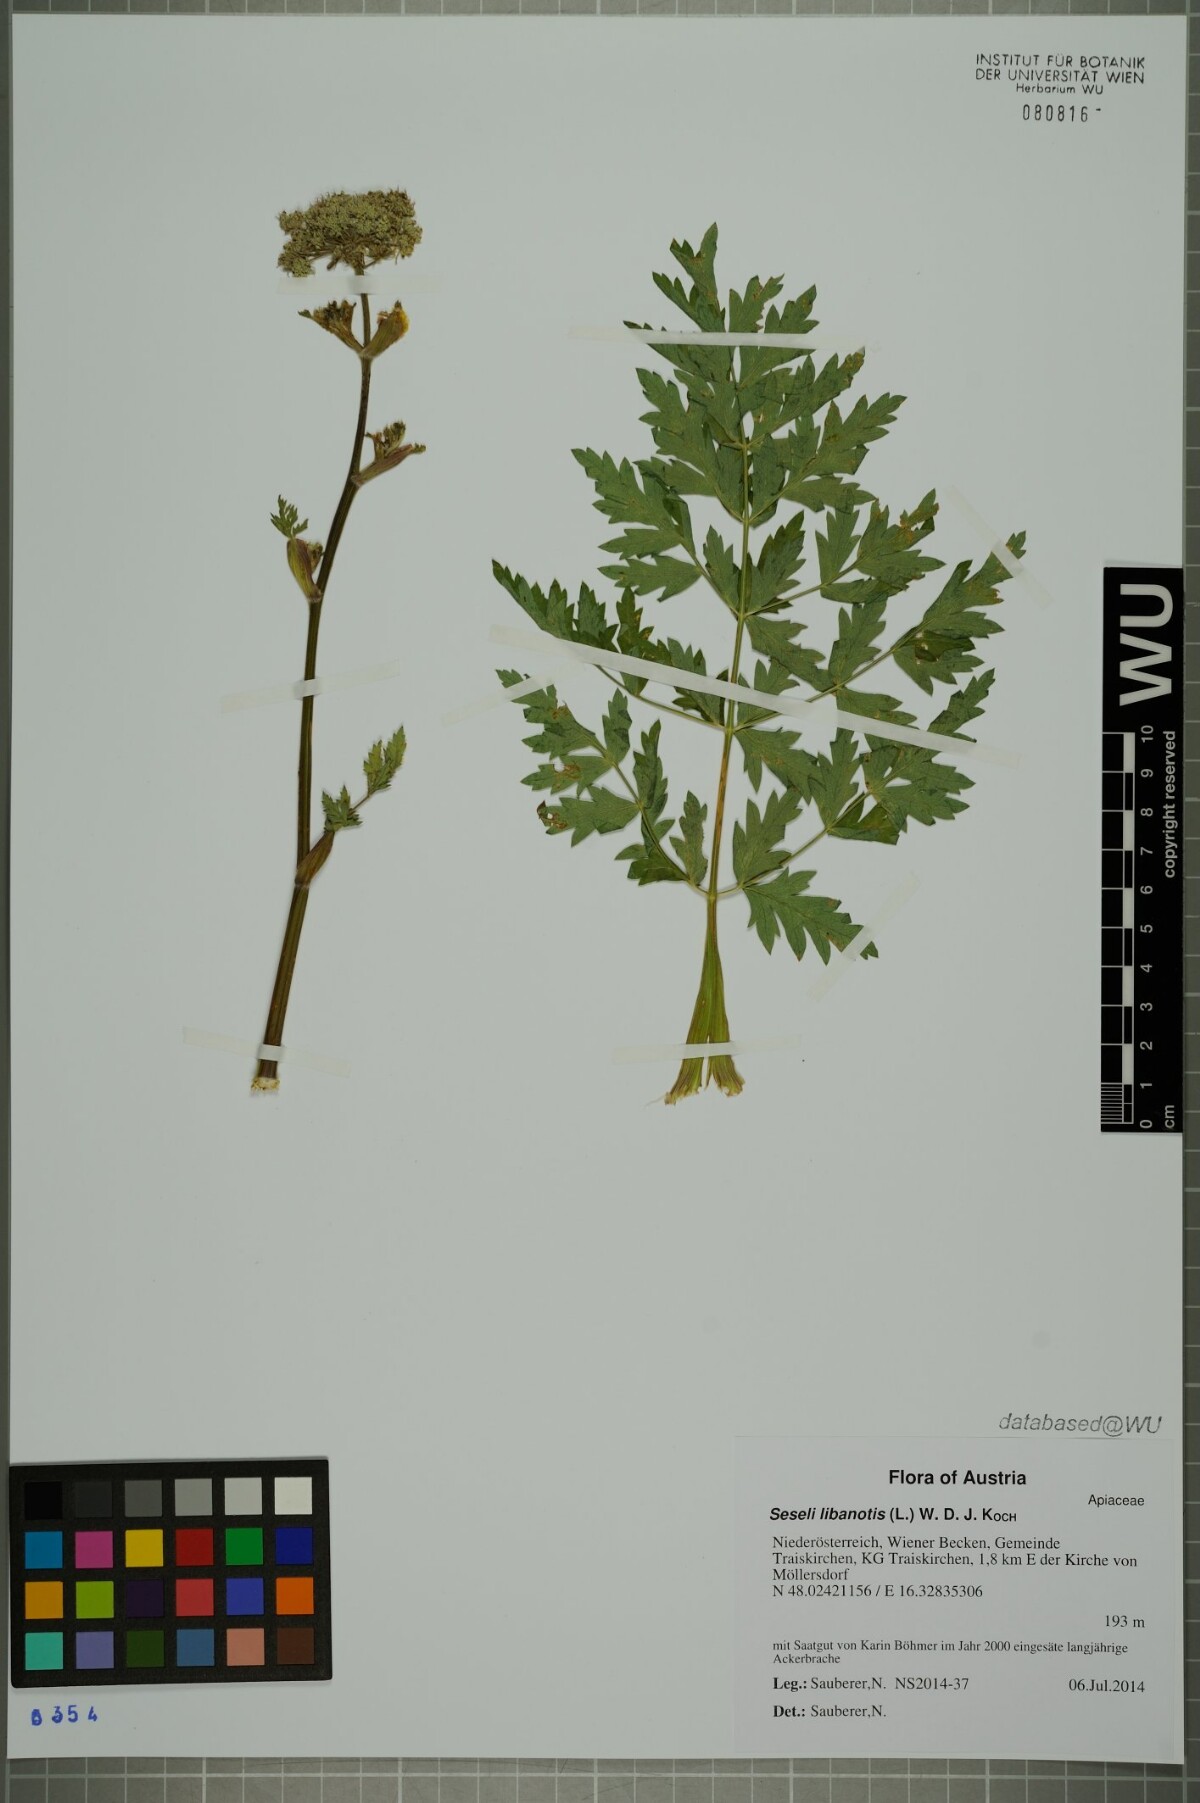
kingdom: Plantae
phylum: Tracheophyta
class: Magnoliopsida
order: Apiales
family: Apiaceae
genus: Seseli
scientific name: Seseli libanotis
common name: Mooncarrot
